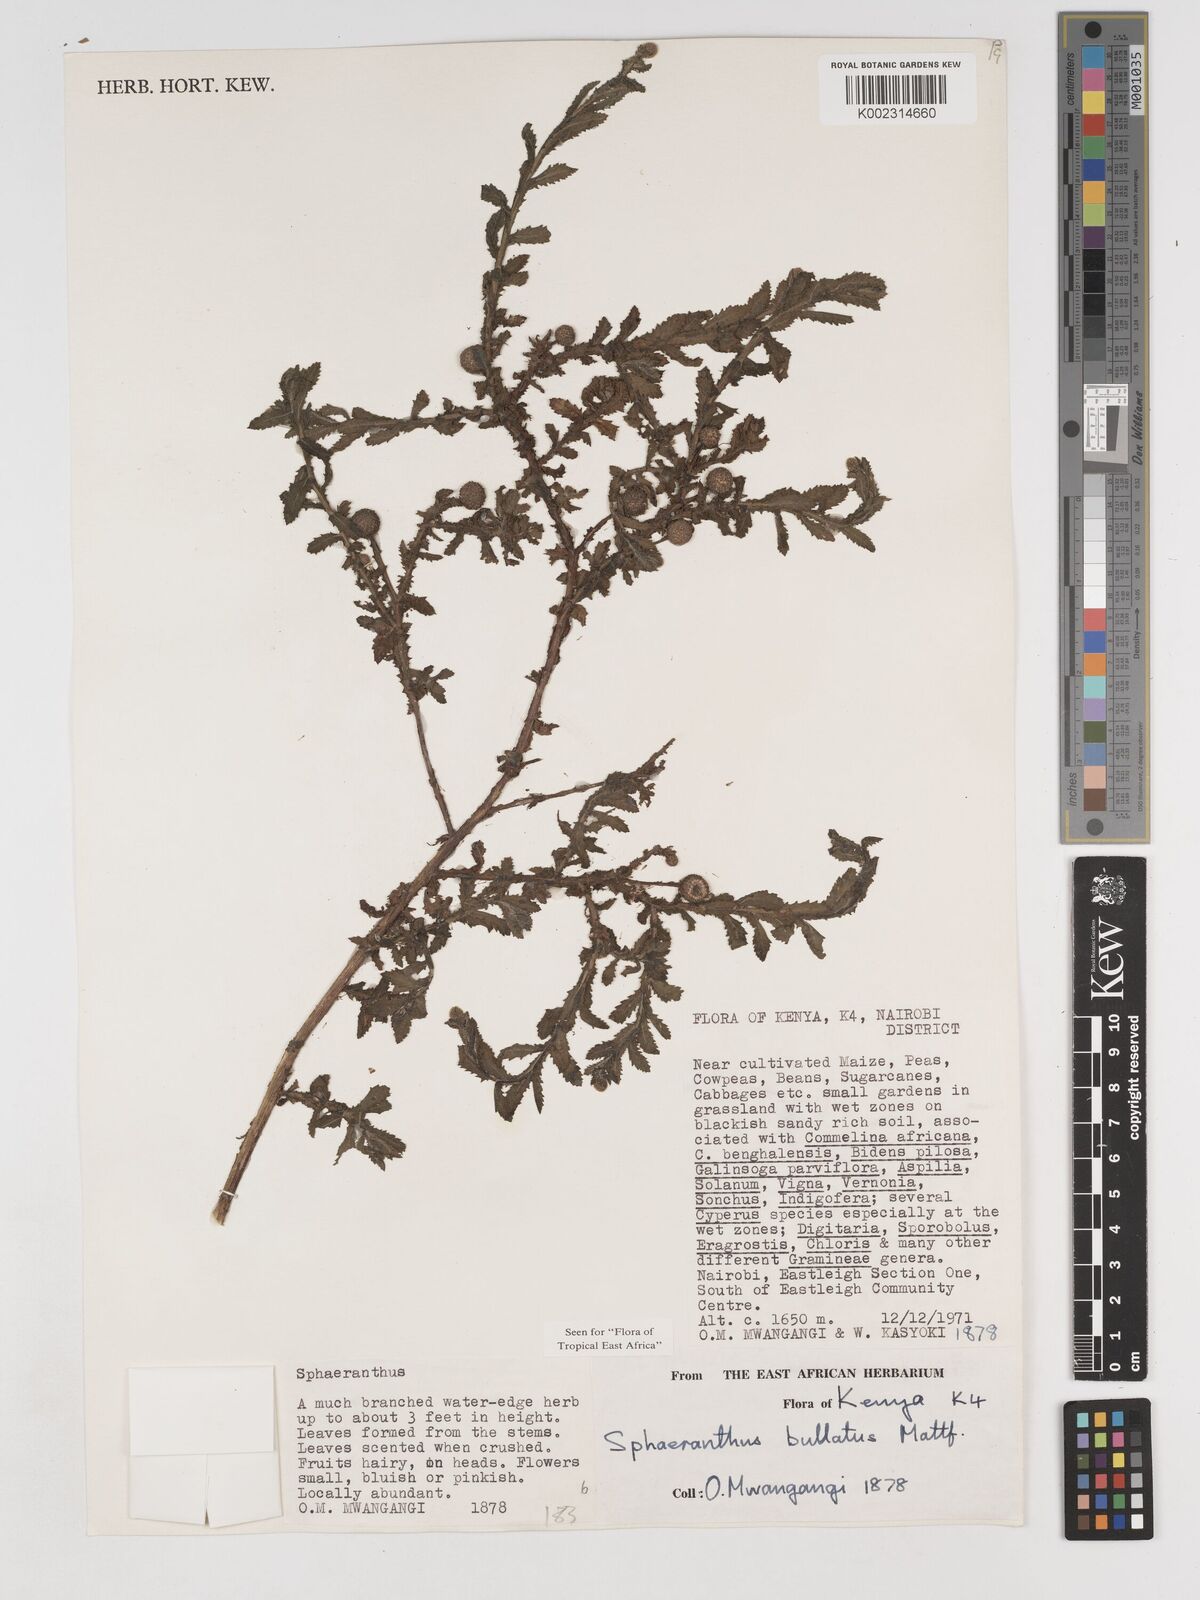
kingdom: Plantae
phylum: Tracheophyta
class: Magnoliopsida
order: Asterales
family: Asteraceae
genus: Sphaeranthus
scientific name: Sphaeranthus bullatus
